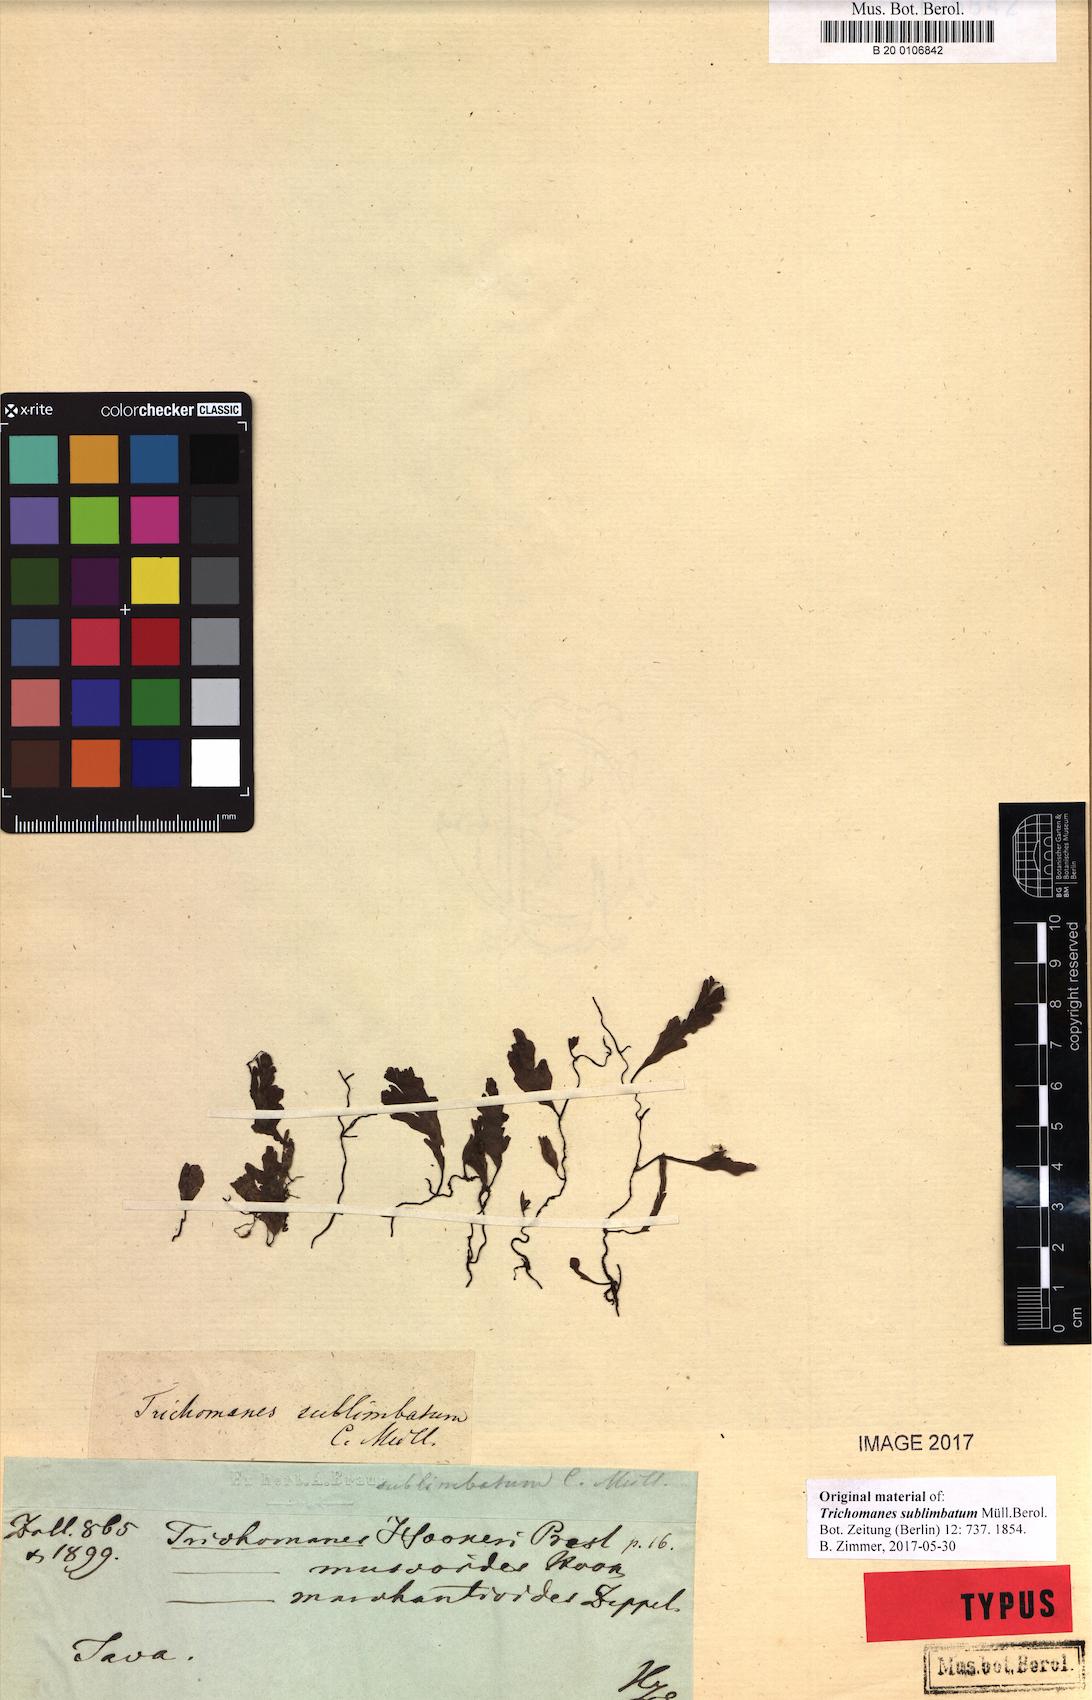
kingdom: Plantae
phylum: Tracheophyta
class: Polypodiopsida
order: Hymenophyllales
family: Hymenophyllaceae
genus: Trichomanes
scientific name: Trichomanes sublimbatum
